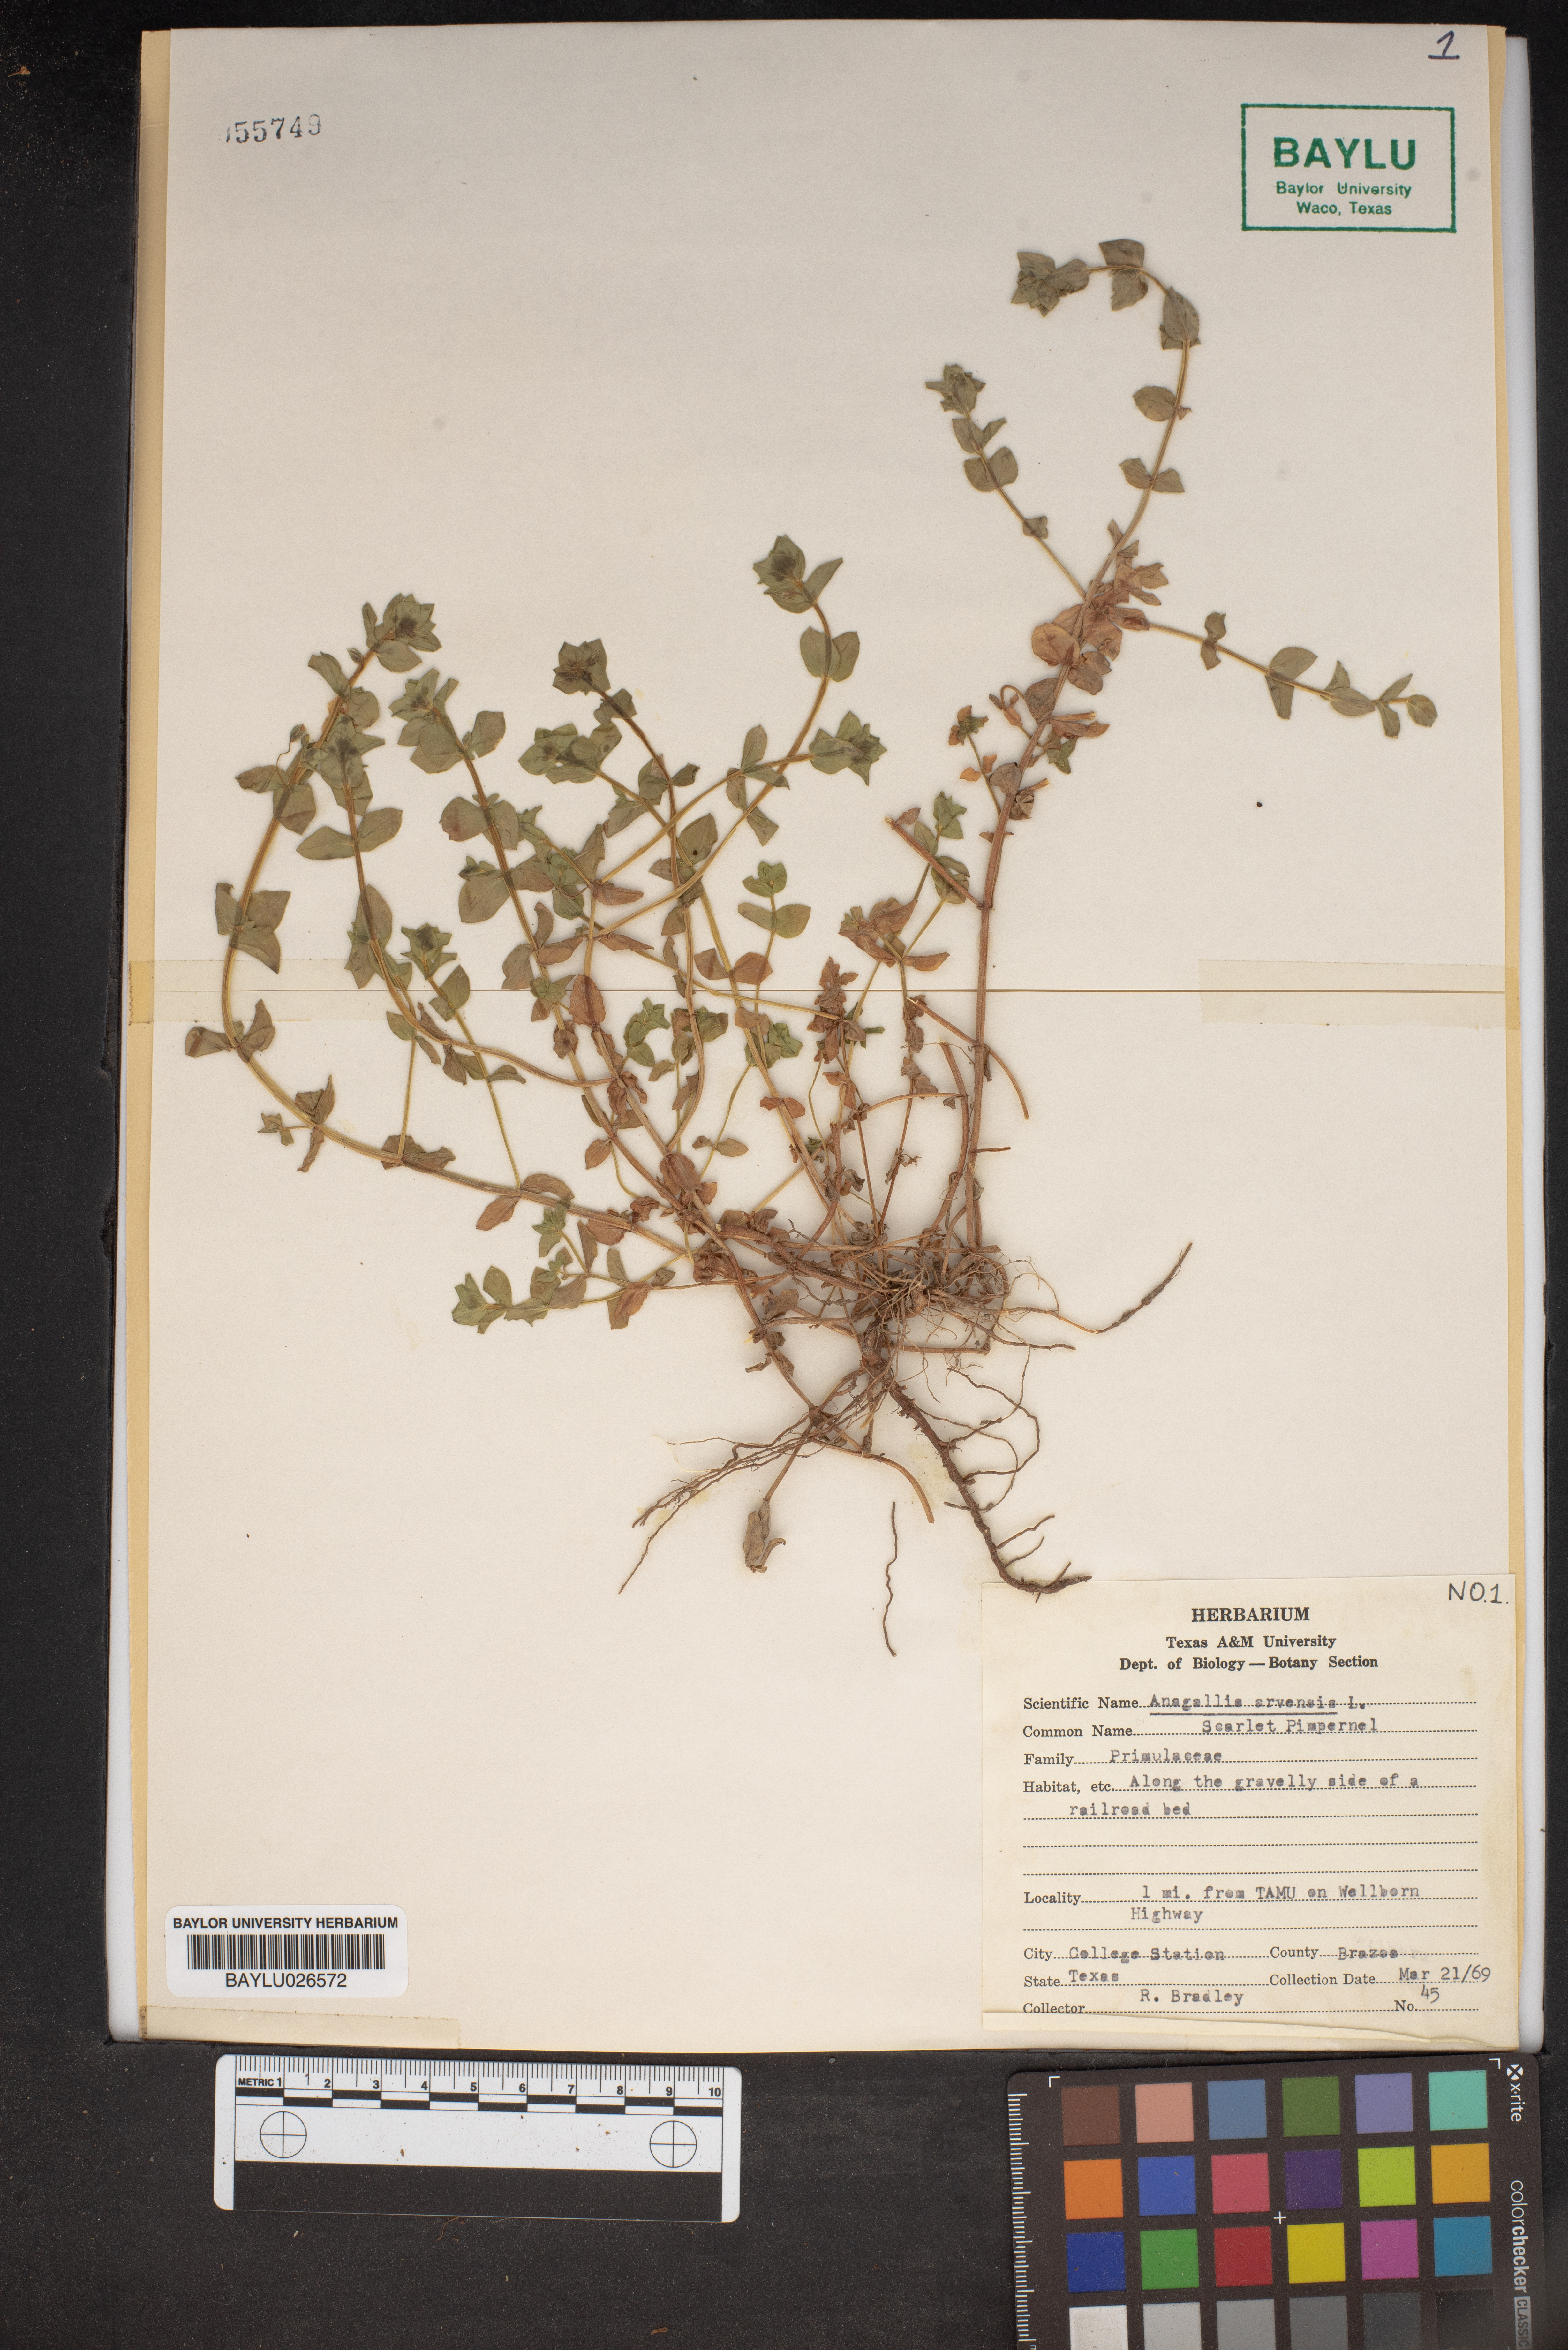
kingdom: Plantae
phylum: Tracheophyta
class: Magnoliopsida
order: Ericales
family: Primulaceae
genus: Lysimachia
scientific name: Lysimachia arvensis
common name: Scarlet pimpernel
